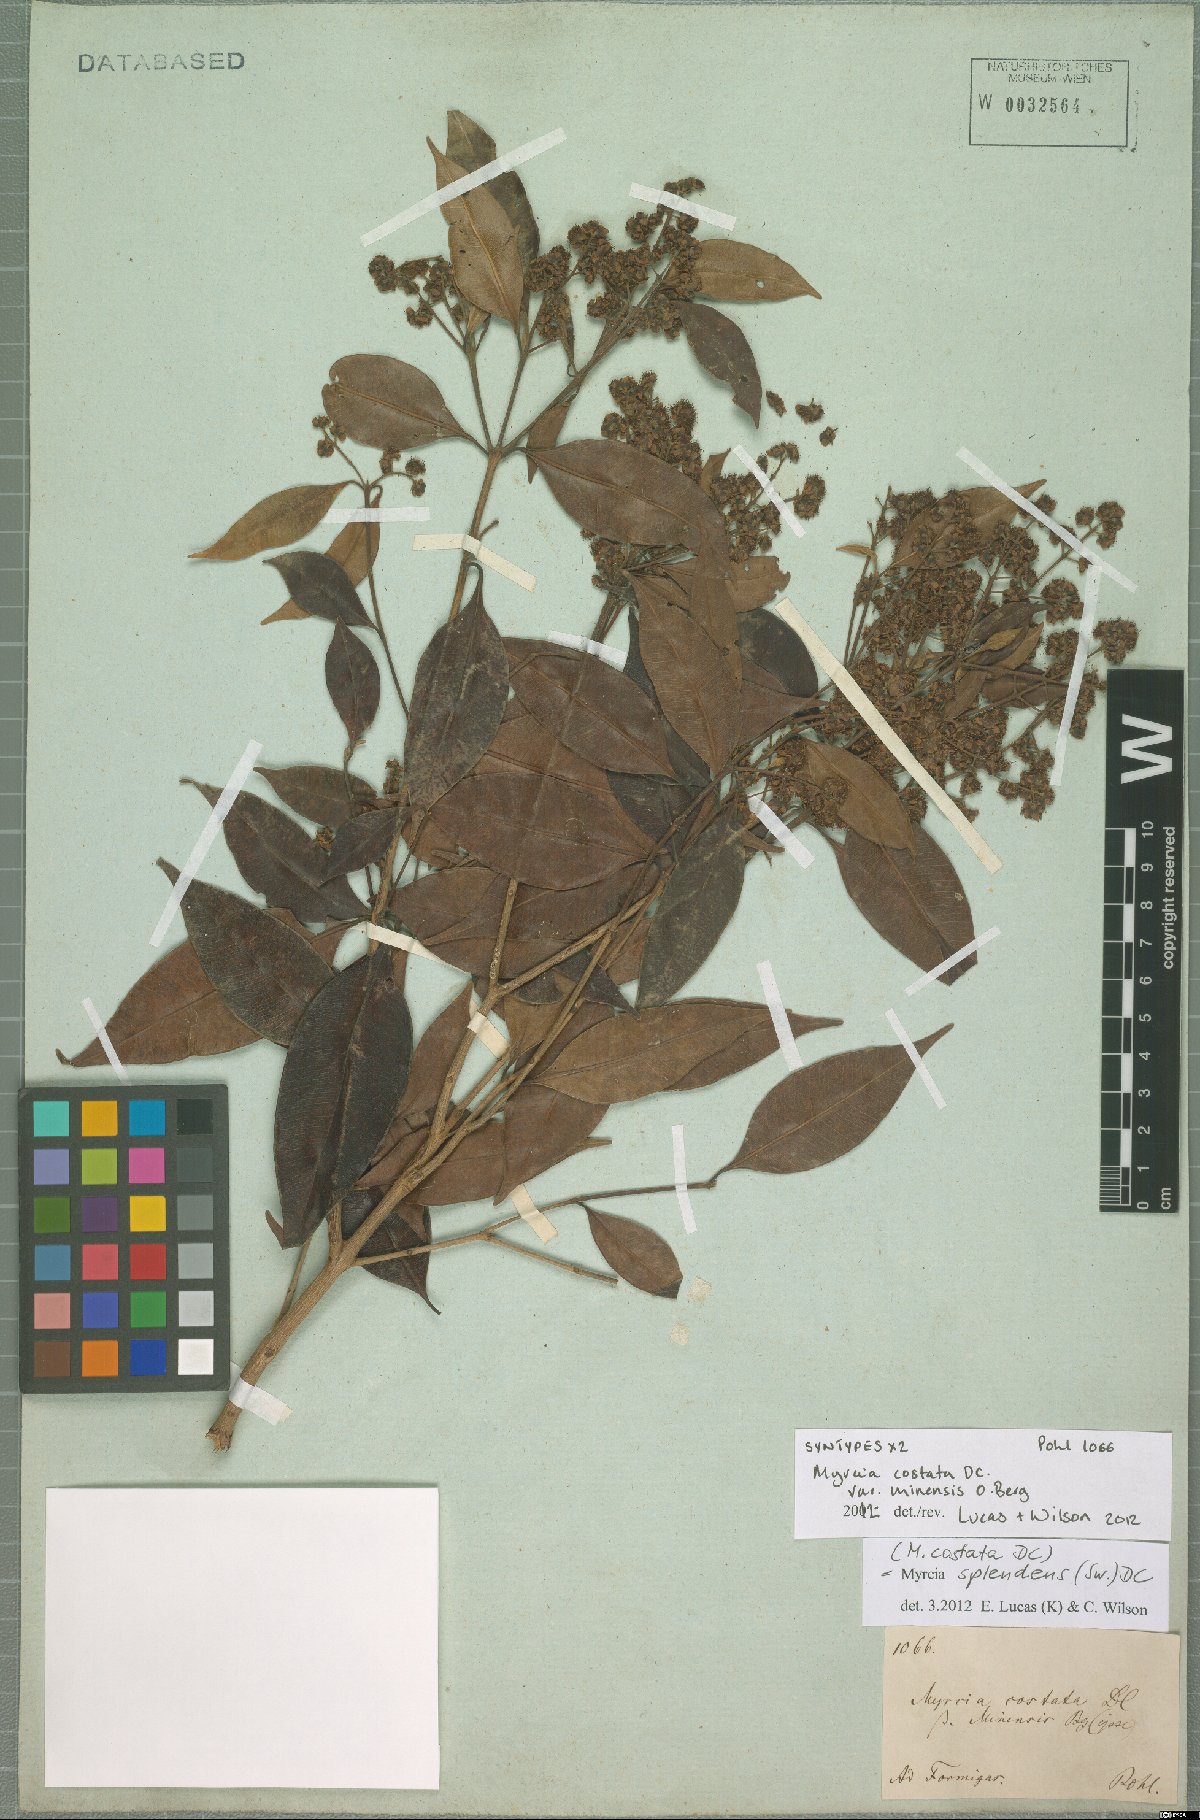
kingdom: Plantae
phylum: Tracheophyta
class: Magnoliopsida
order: Myrtales
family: Myrtaceae
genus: Myrcia
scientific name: Myrcia splendens
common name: Surinam cherry
